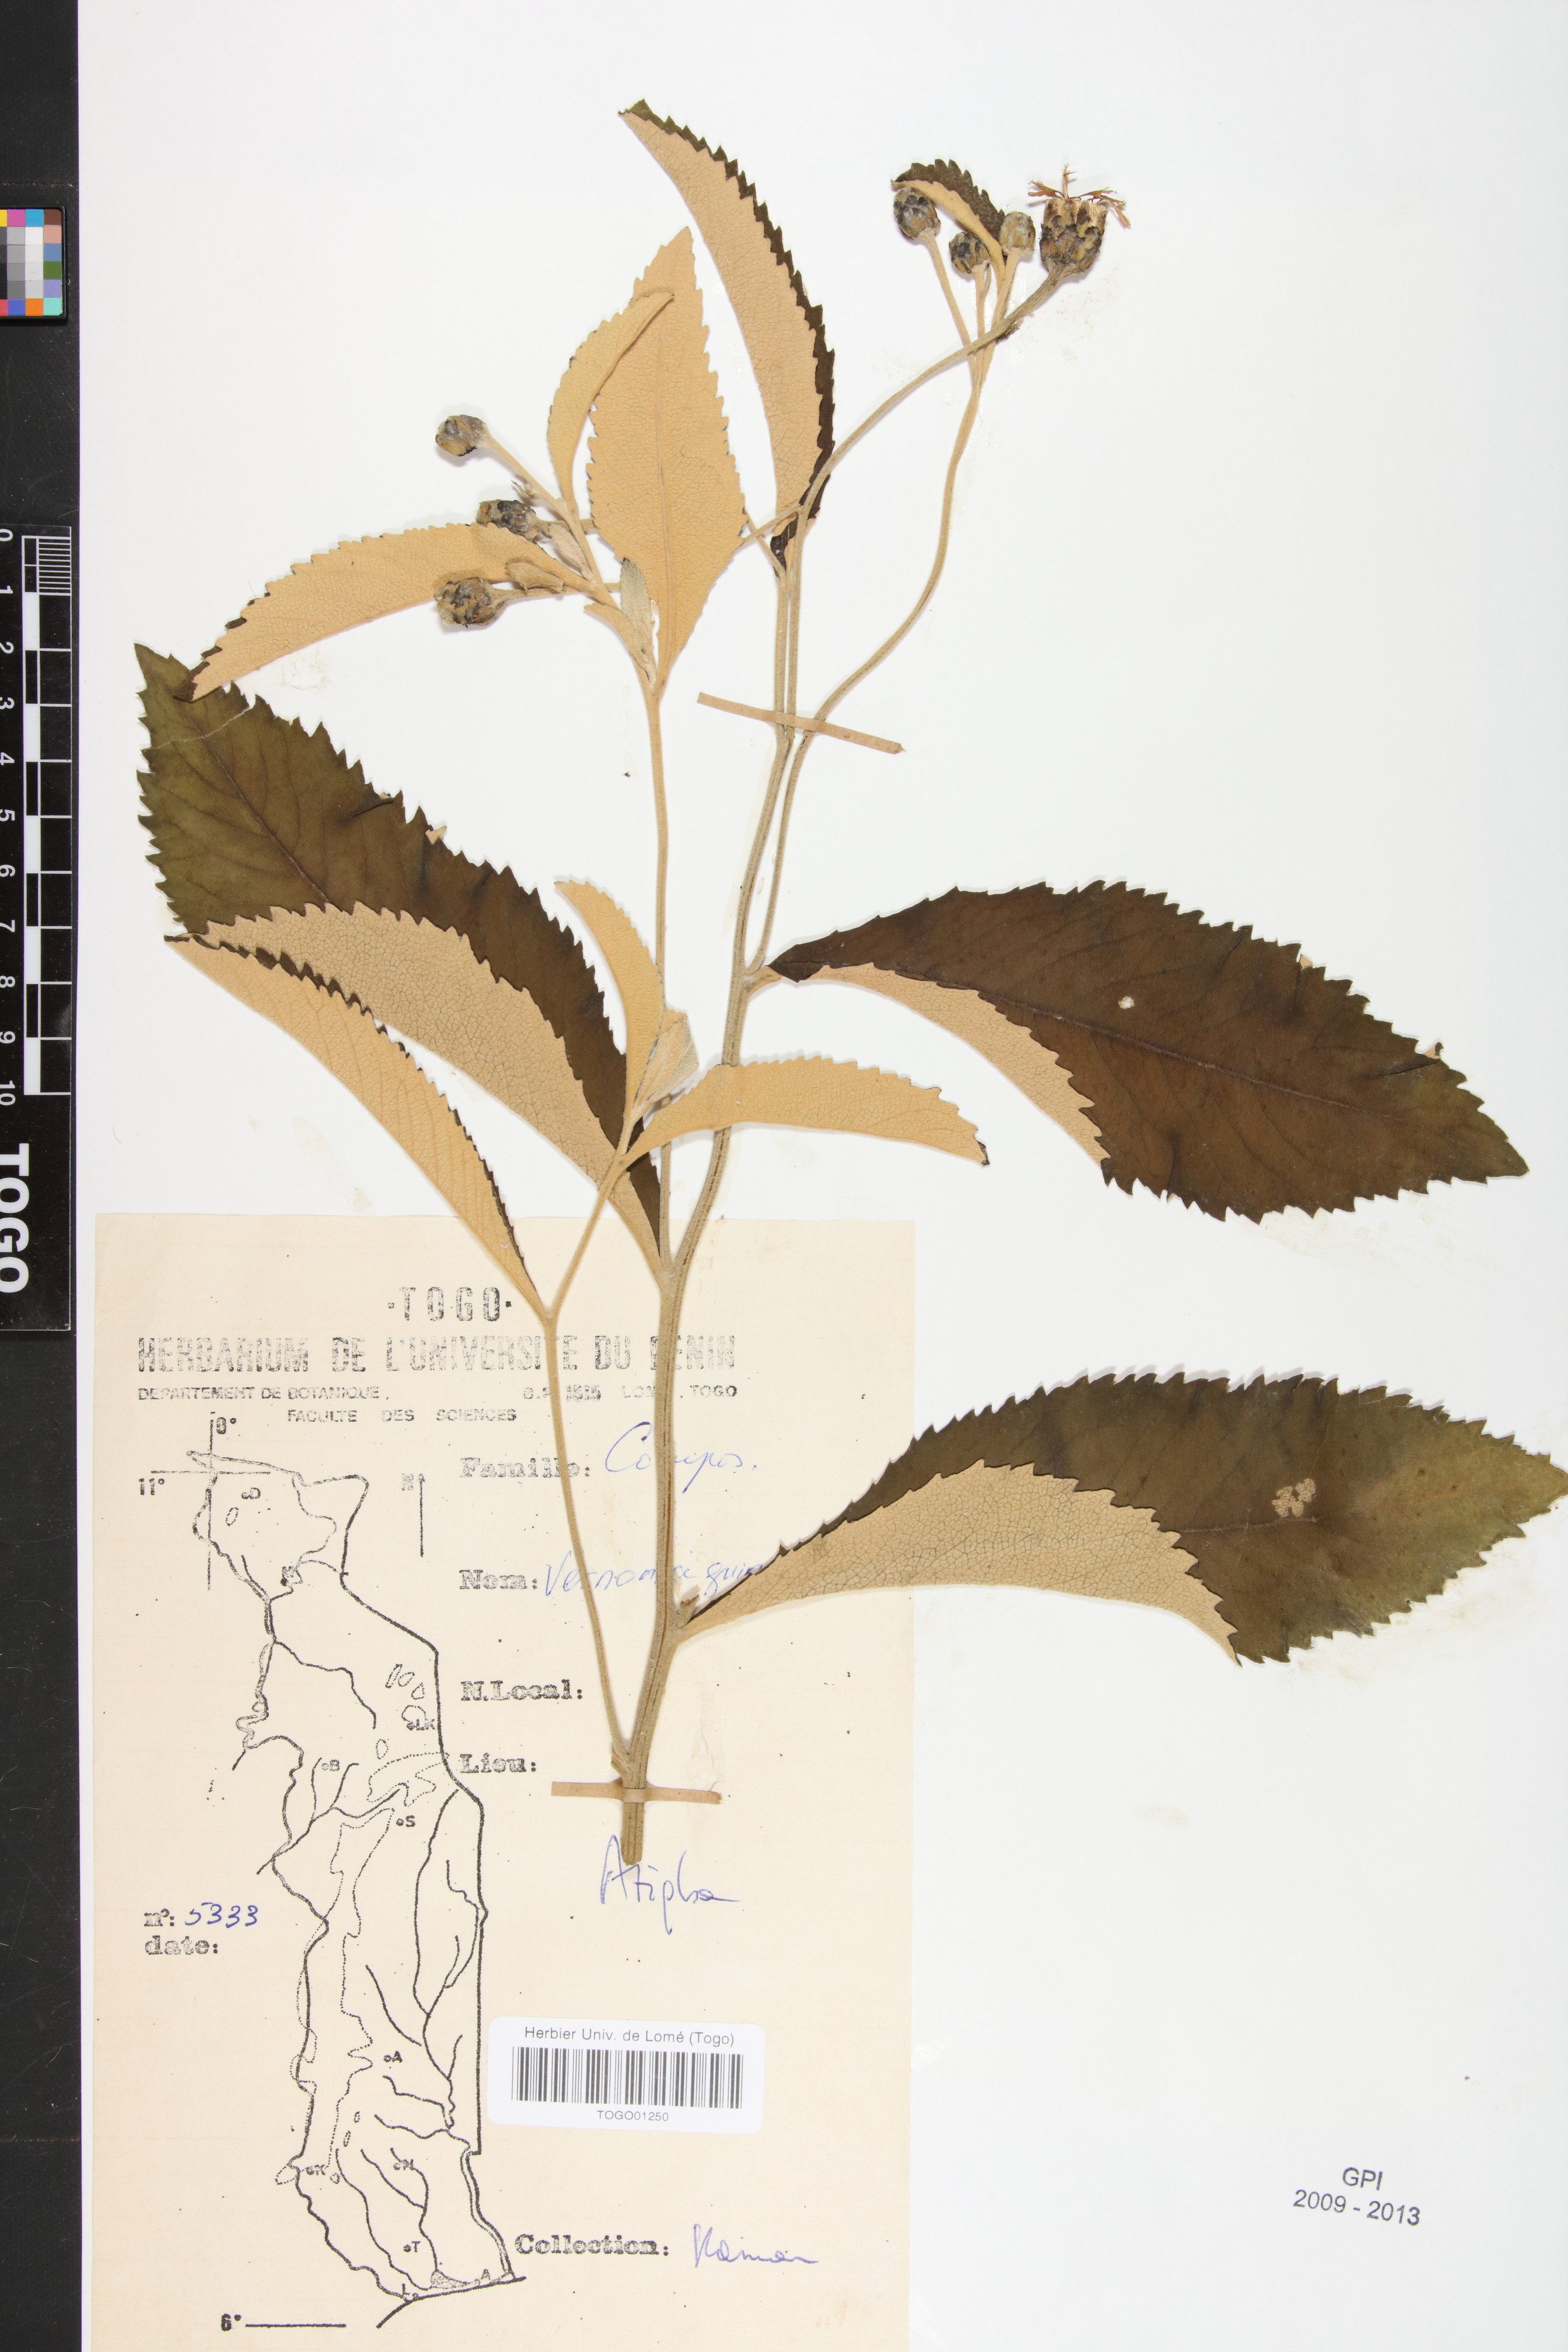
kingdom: Plantae
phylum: Tracheophyta
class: Magnoliopsida
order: Asterales
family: Asteraceae
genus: Baccharoides
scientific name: Baccharoides guineensis
